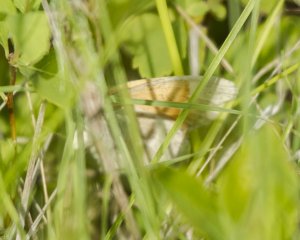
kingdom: Animalia
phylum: Arthropoda
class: Insecta
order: Lepidoptera
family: Nymphalidae
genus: Coenonympha
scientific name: Coenonympha tullia
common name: Large Heath
